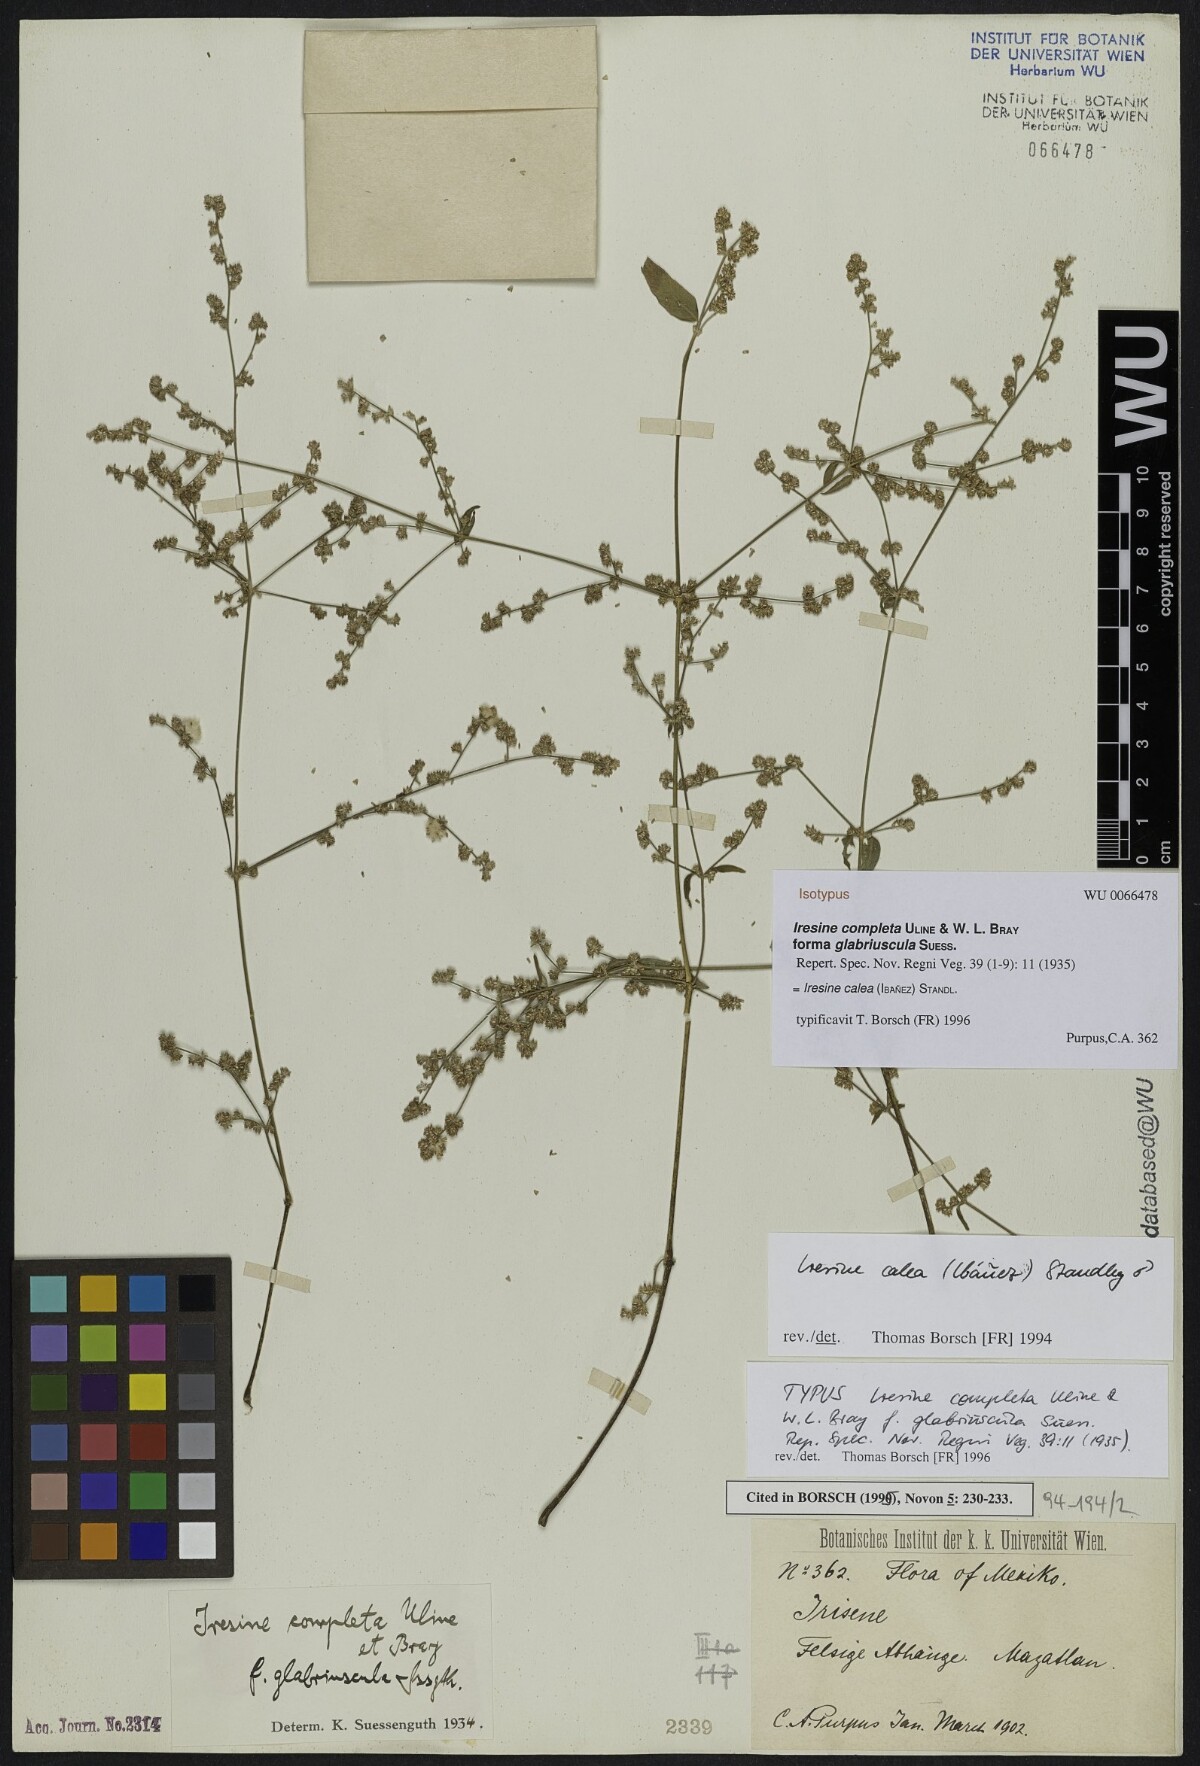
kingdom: Plantae
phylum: Tracheophyta
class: Magnoliopsida
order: Caryophyllales
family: Amaranthaceae
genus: Pedersenia
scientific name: Pedersenia completa
